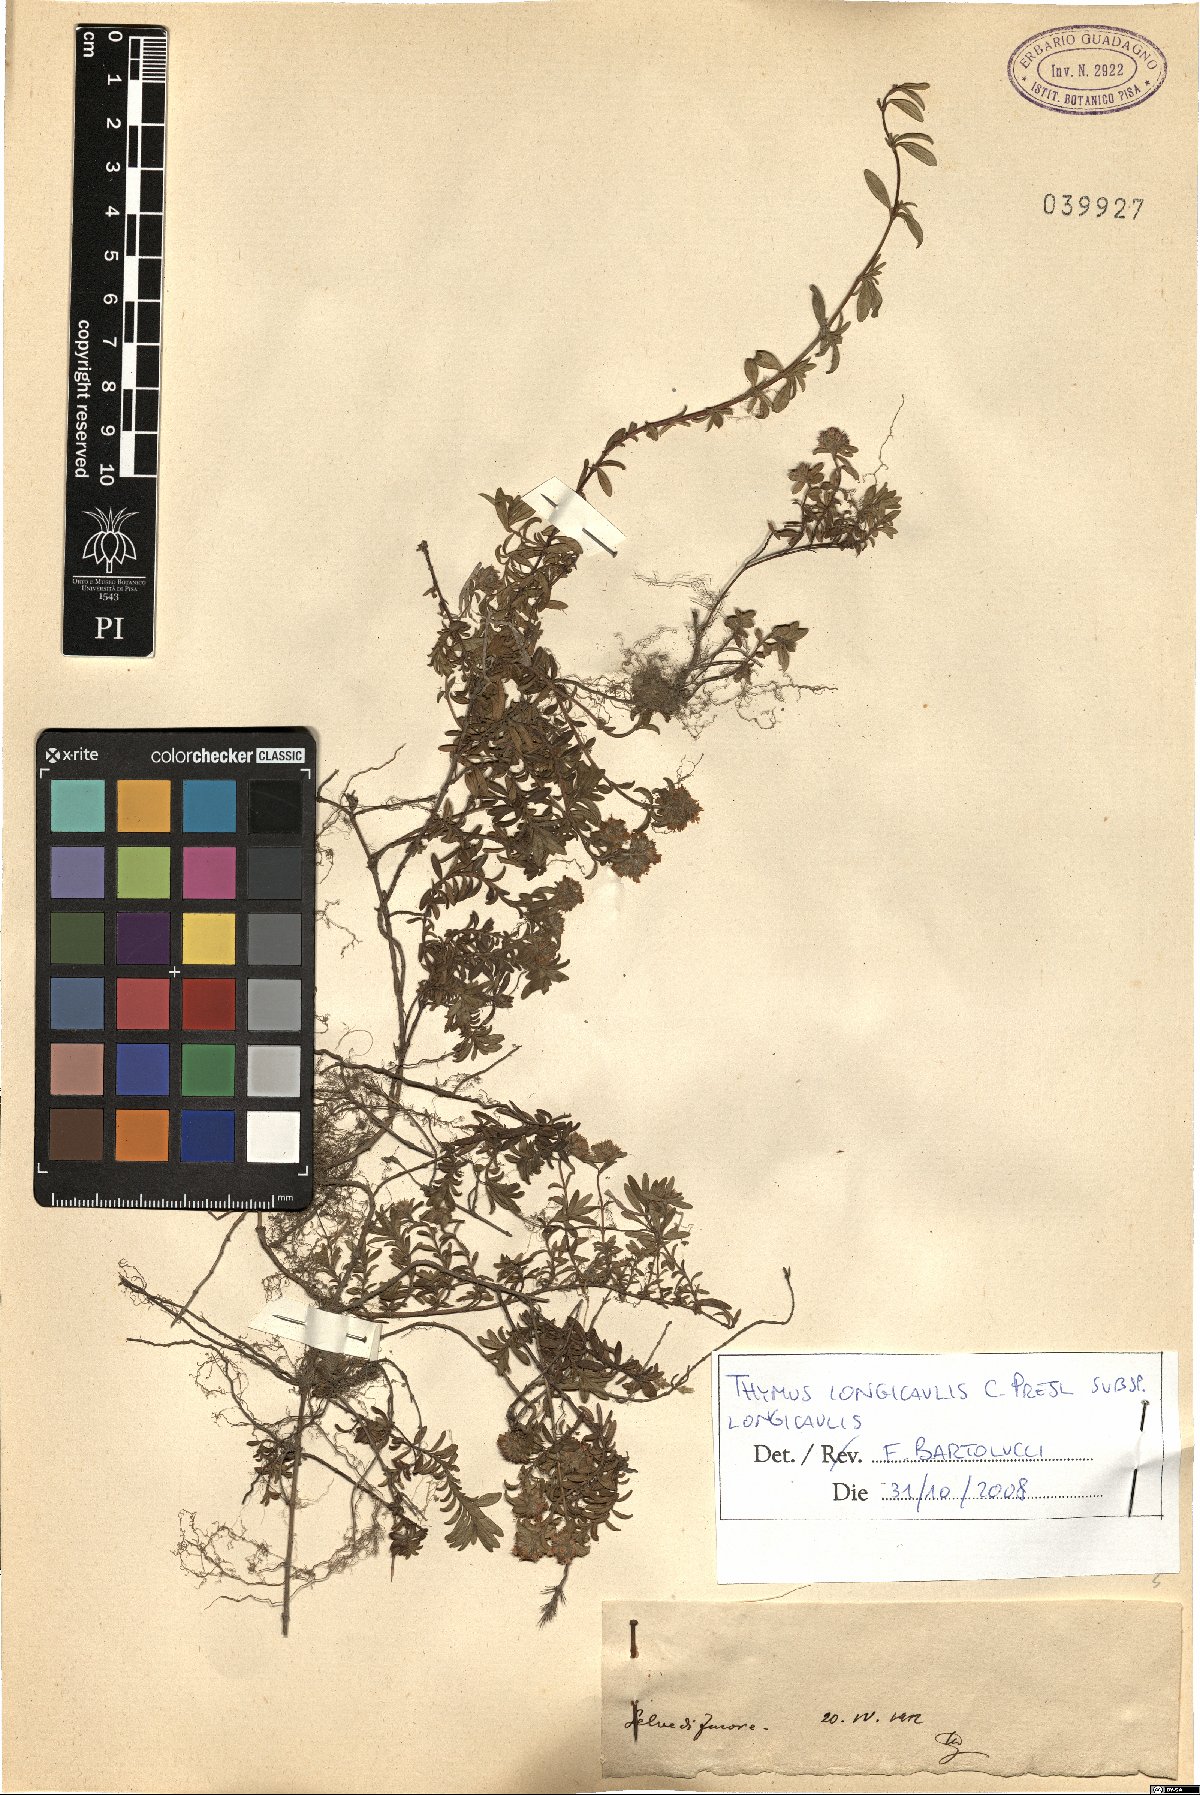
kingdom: Plantae
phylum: Tracheophyta
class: Magnoliopsida
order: Lamiales
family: Lamiaceae
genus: Thymus
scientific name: Thymus longicaulis
